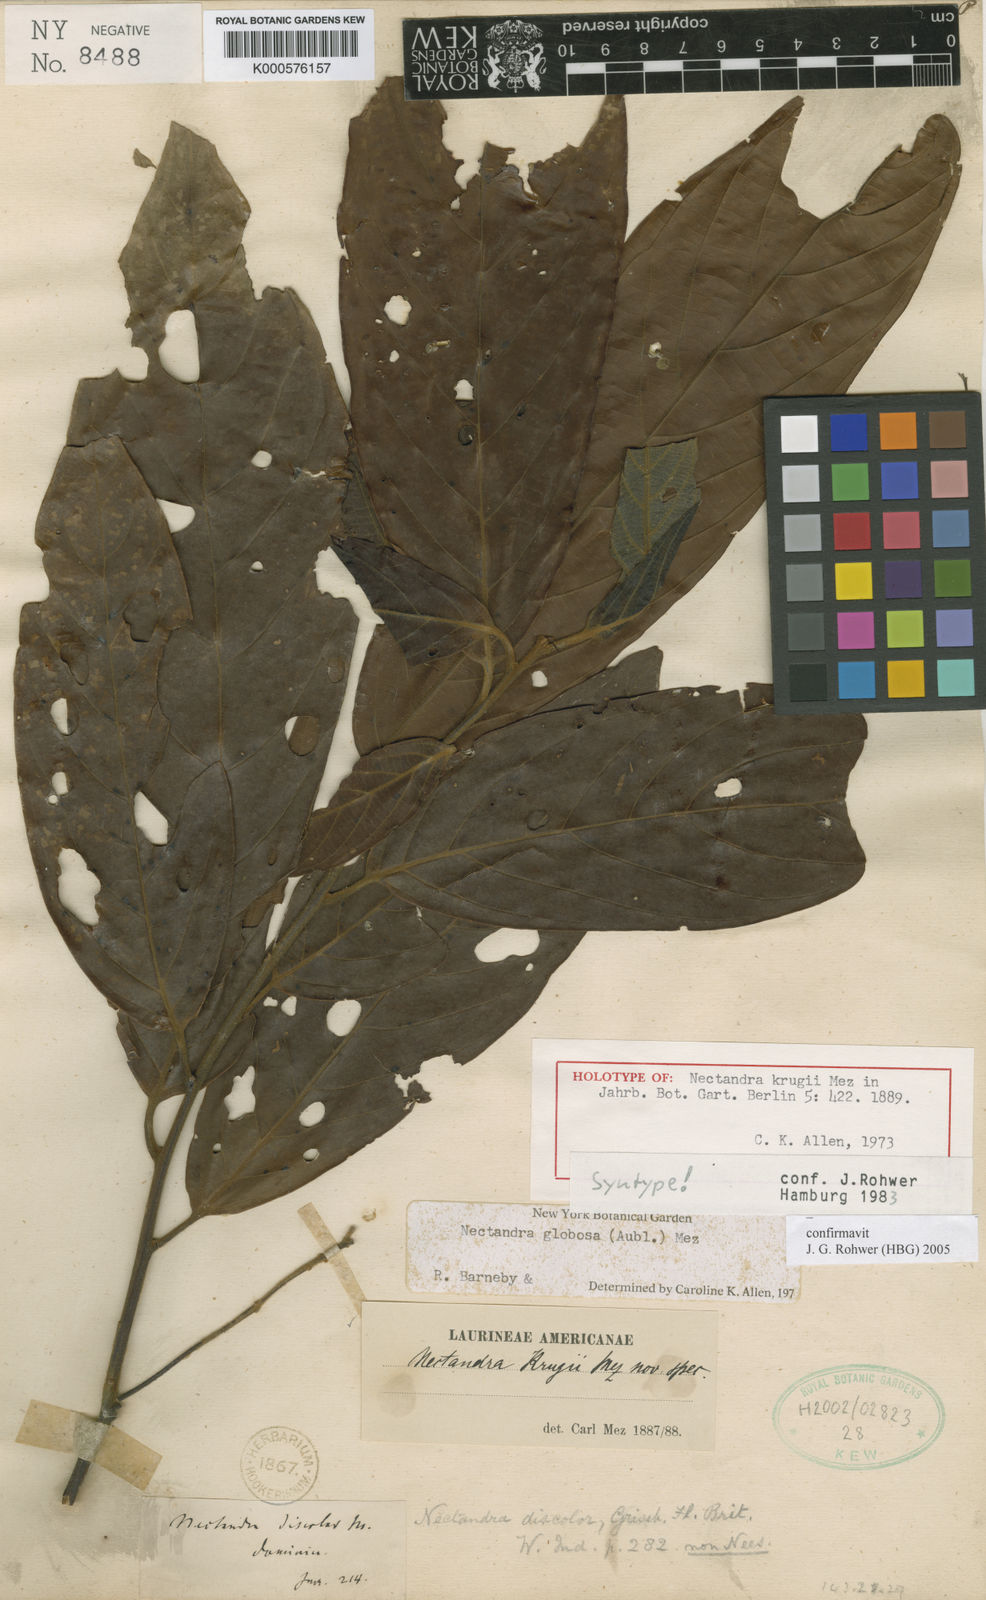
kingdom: Plantae
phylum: Tracheophyta
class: Magnoliopsida
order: Laurales
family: Lauraceae
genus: Nectandra
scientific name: Nectandra krugii
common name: Black sweetwood
